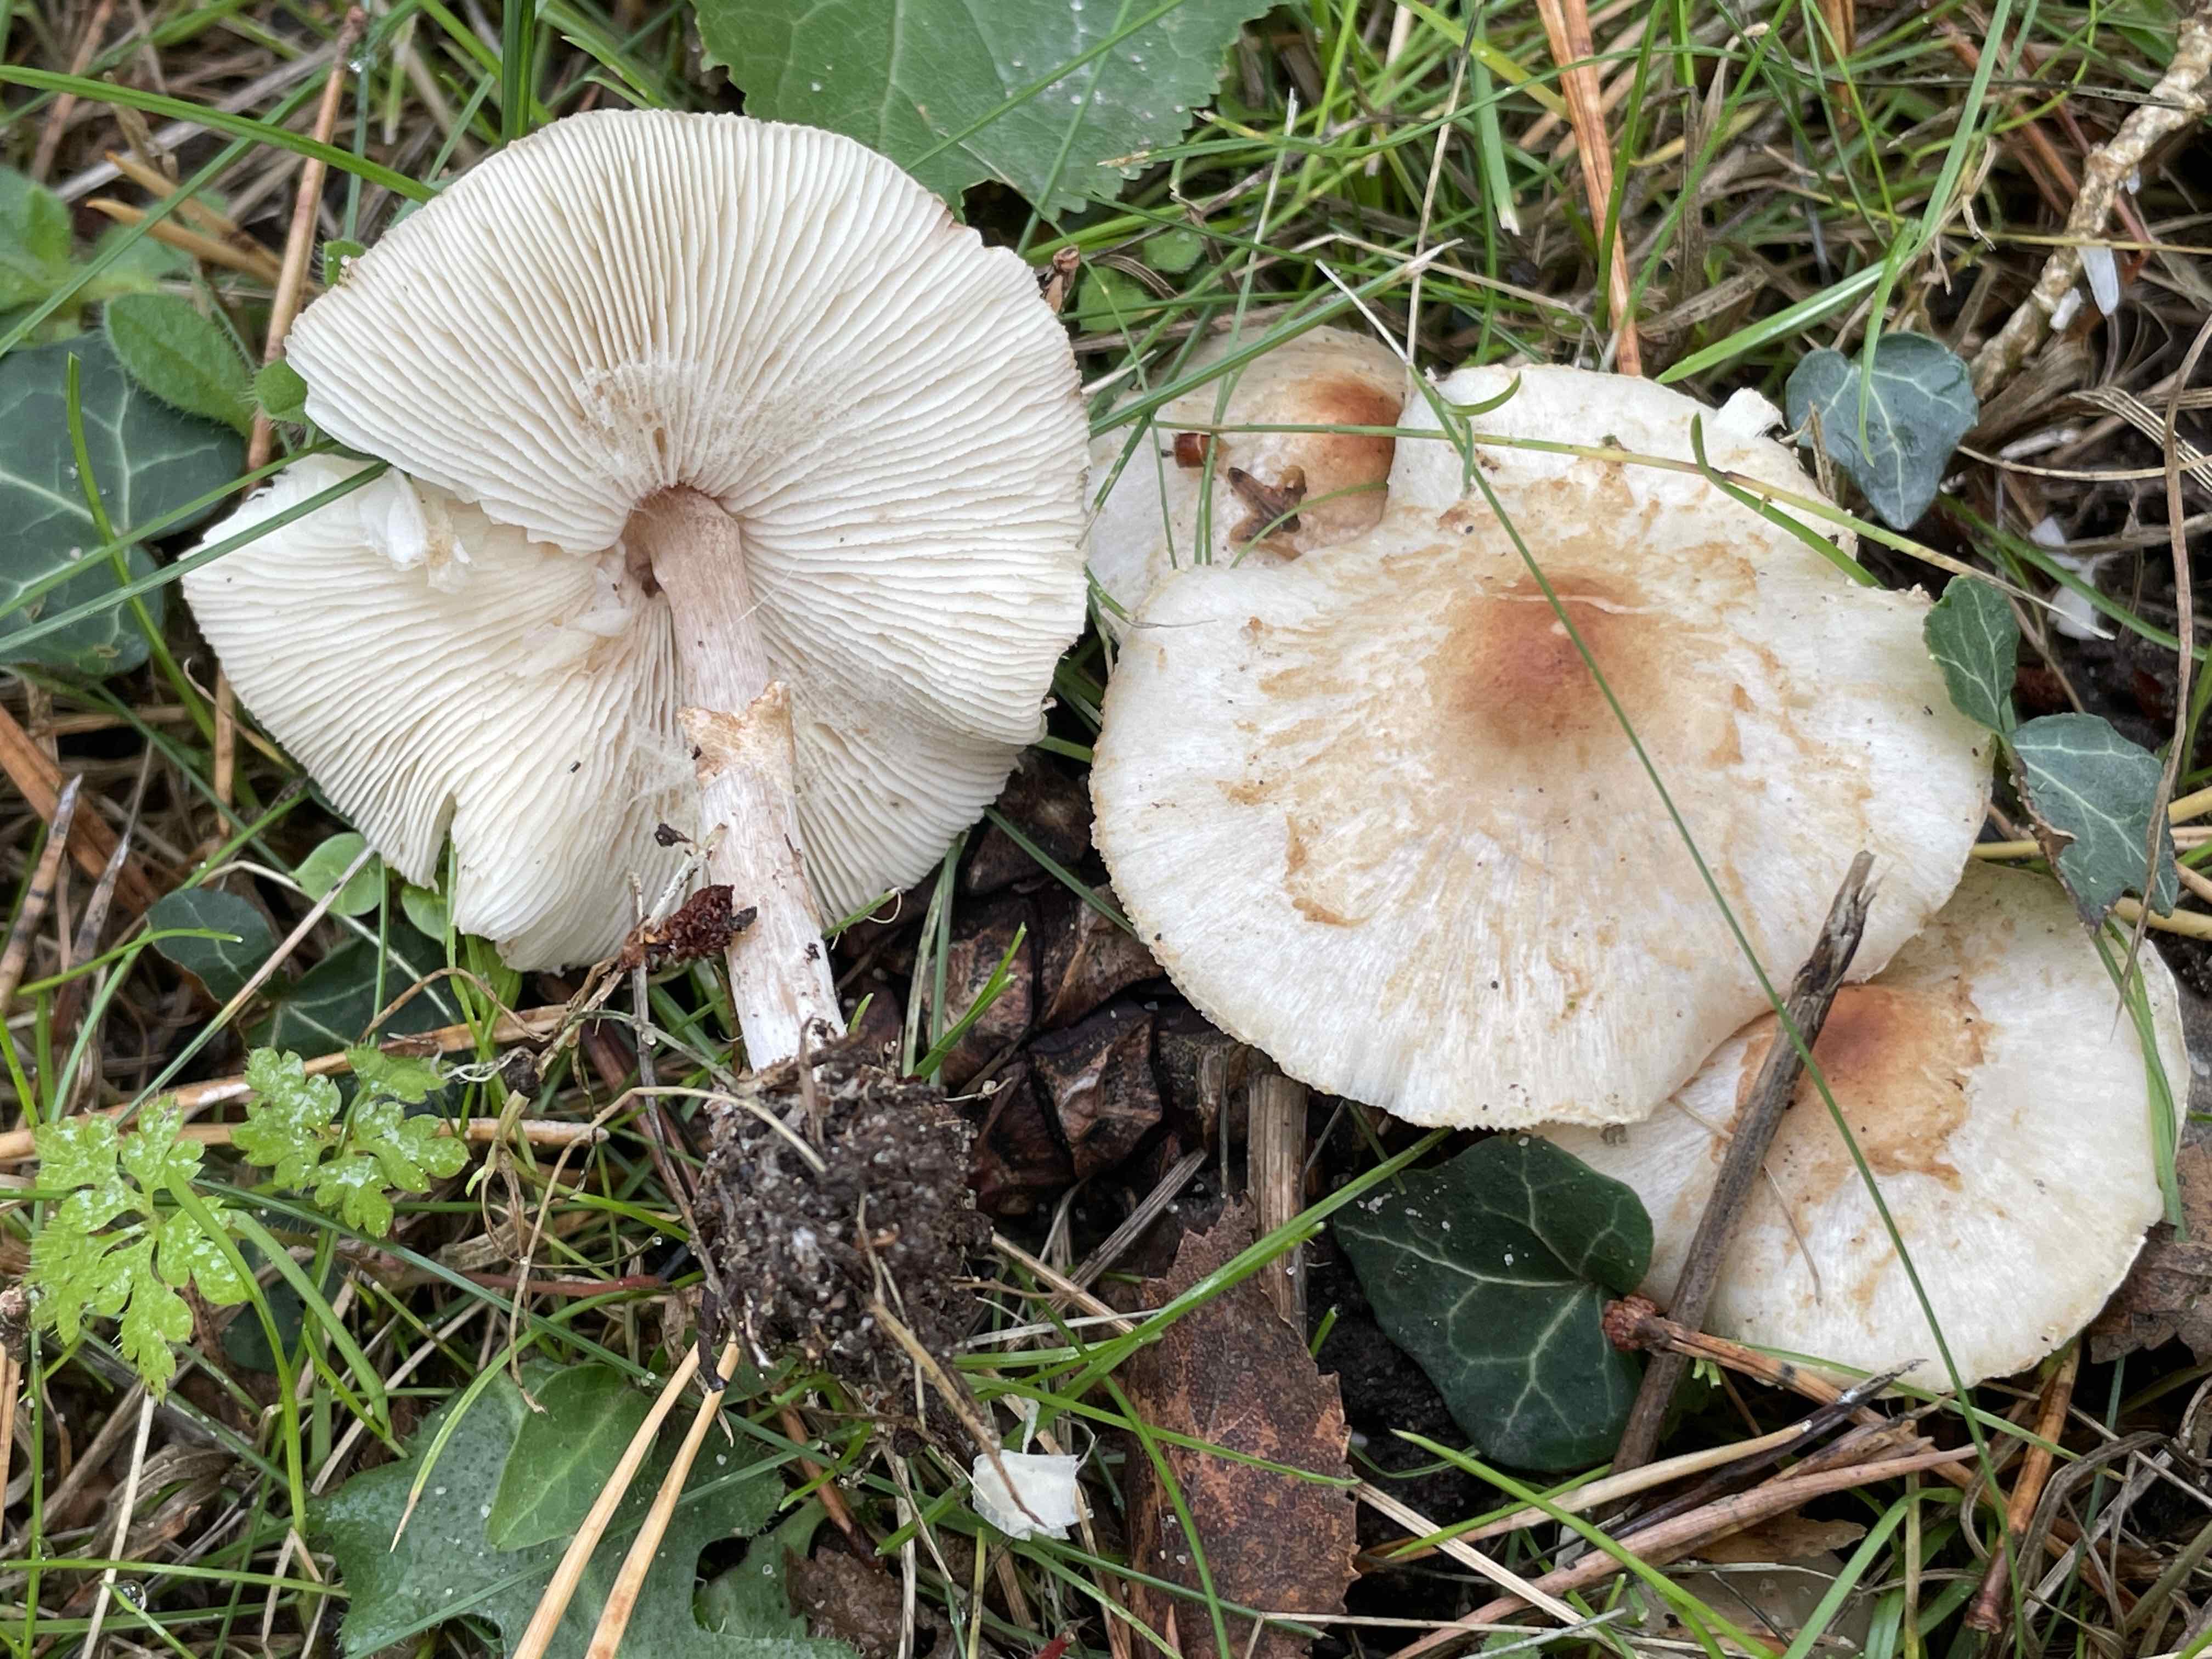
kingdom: Fungi
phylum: Basidiomycota
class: Agaricomycetes
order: Agaricales
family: Agaricaceae
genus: Lepiota
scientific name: Lepiota cristata
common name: stinkende parasolhat
